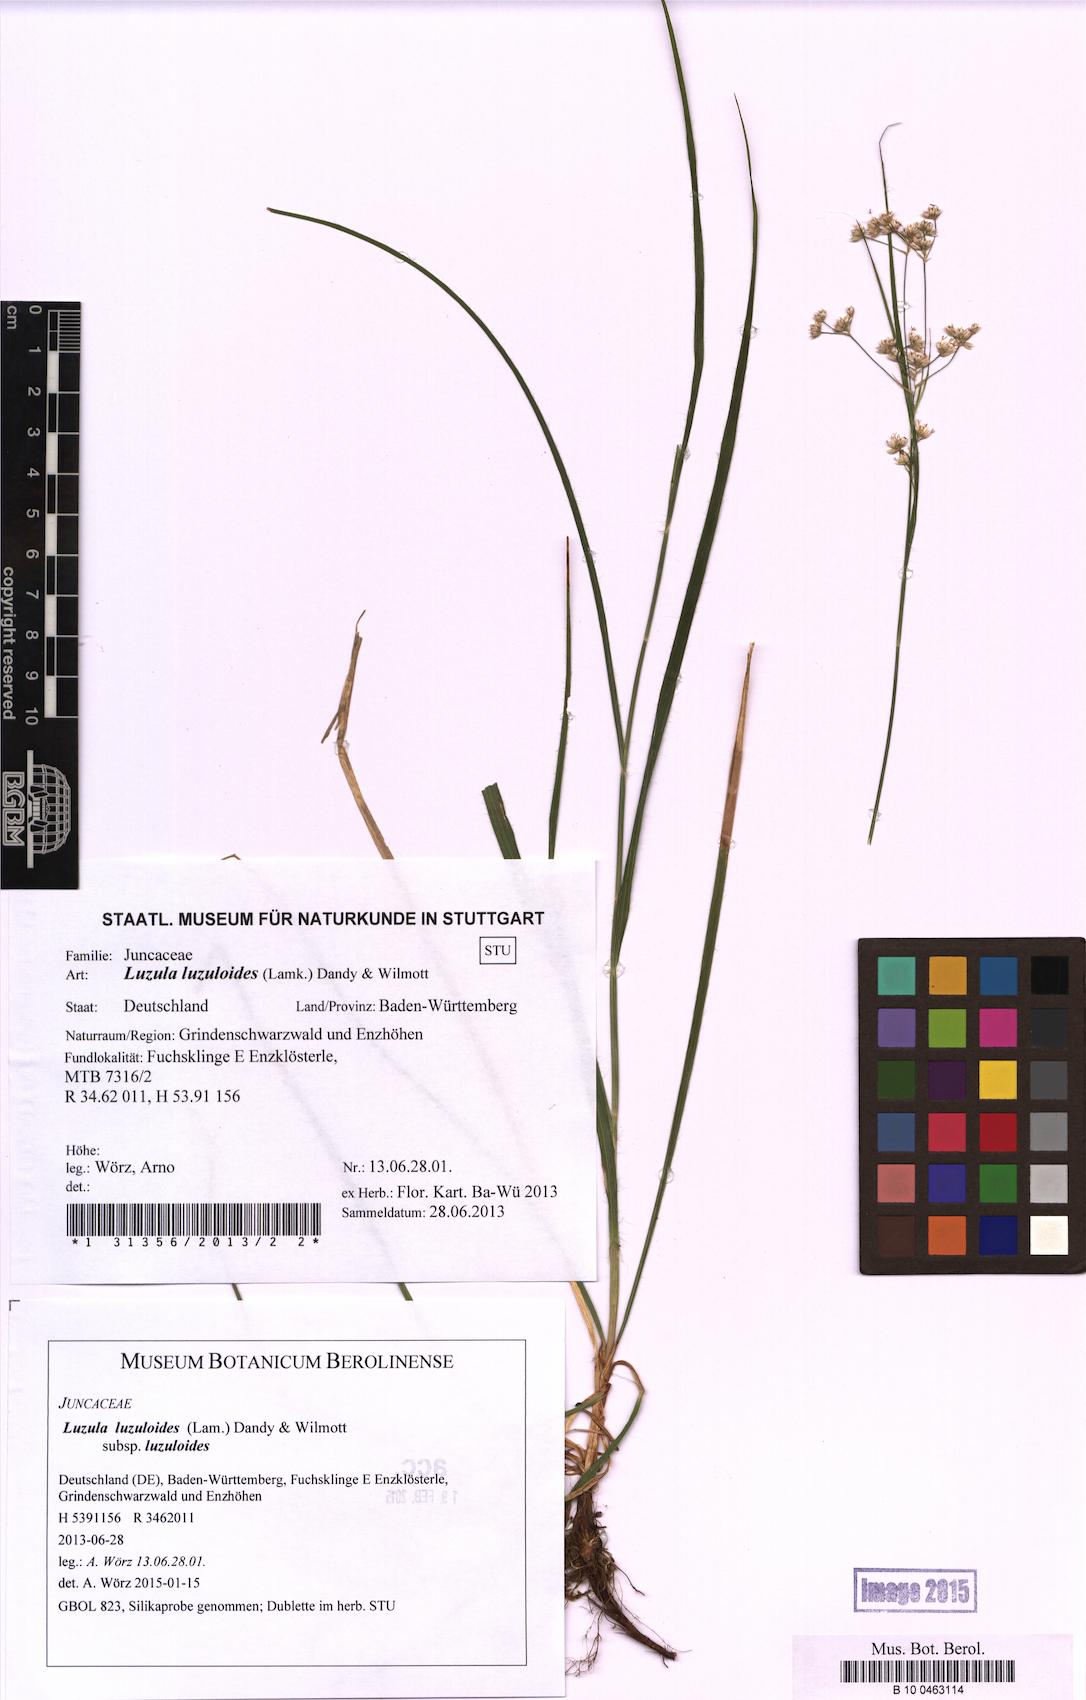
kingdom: Plantae
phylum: Tracheophyta
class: Liliopsida
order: Poales
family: Juncaceae
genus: Luzula
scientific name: Luzula luzuloides
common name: White wood-rush
